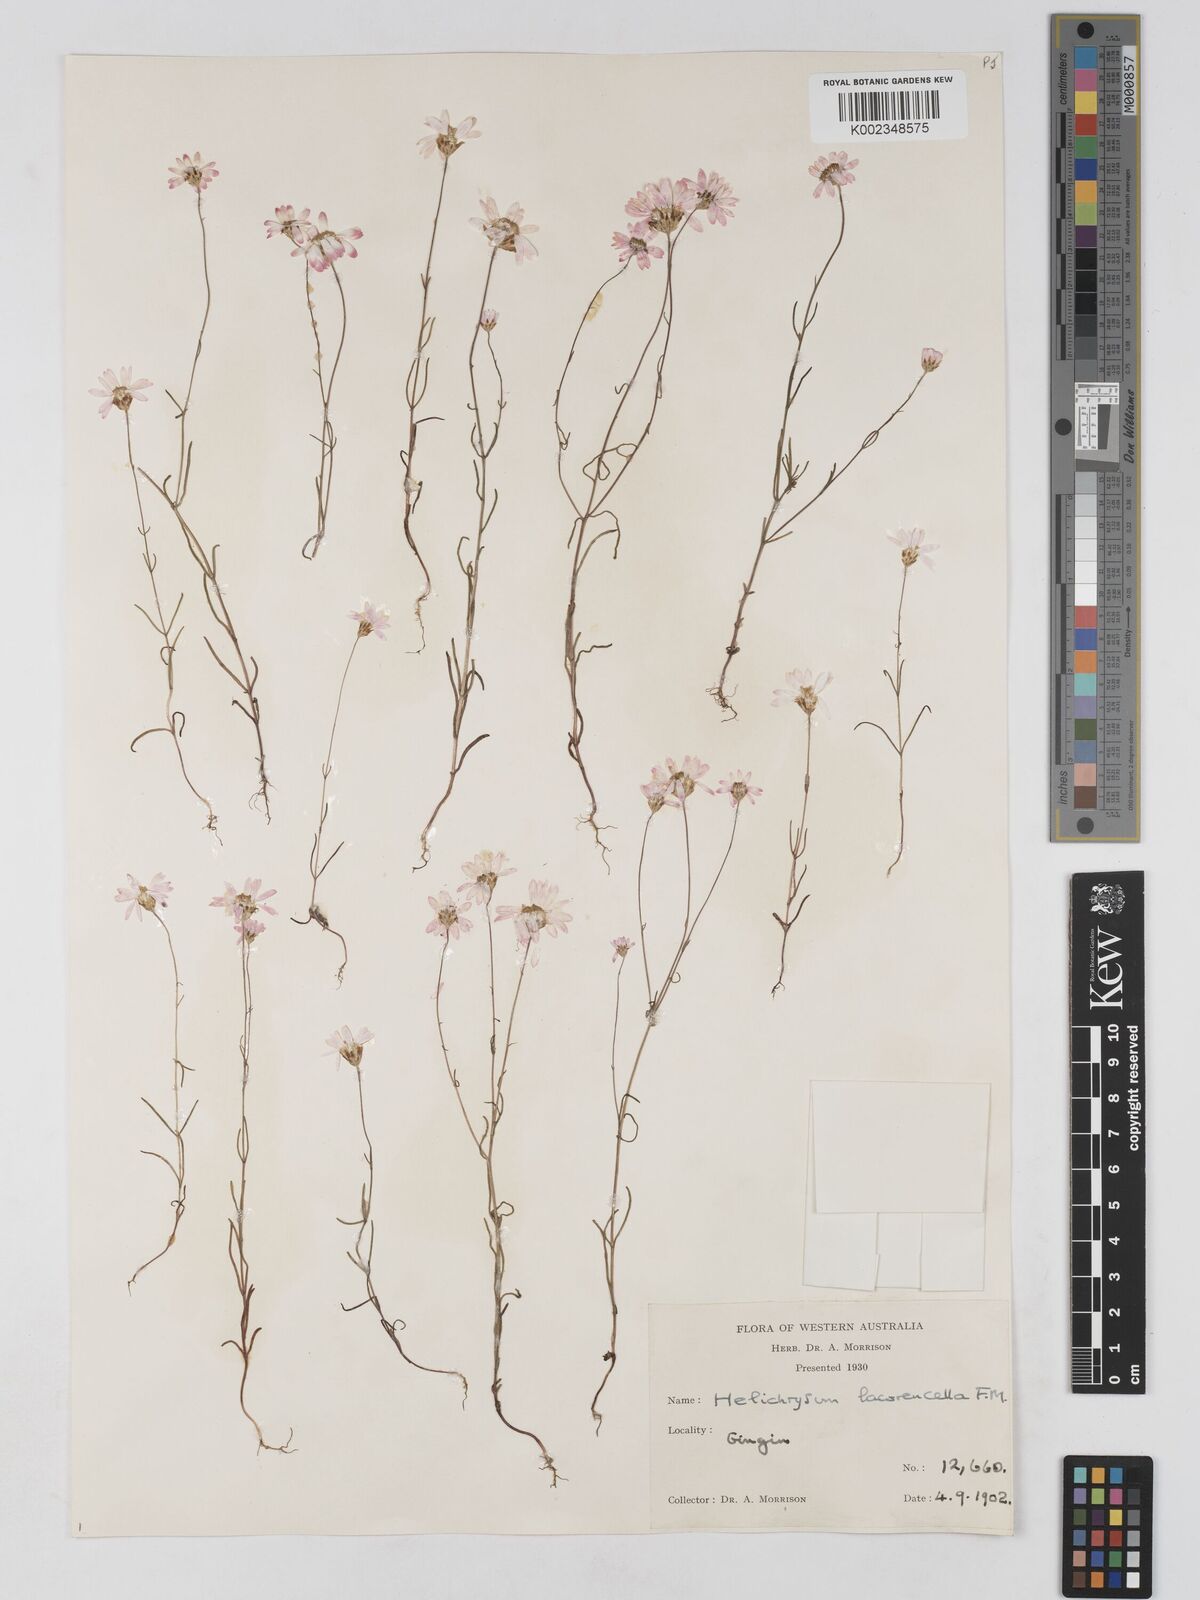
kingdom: Plantae
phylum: Tracheophyta
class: Magnoliopsida
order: Asterales
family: Asteraceae
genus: Lawrencella
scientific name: Lawrencella rosea
